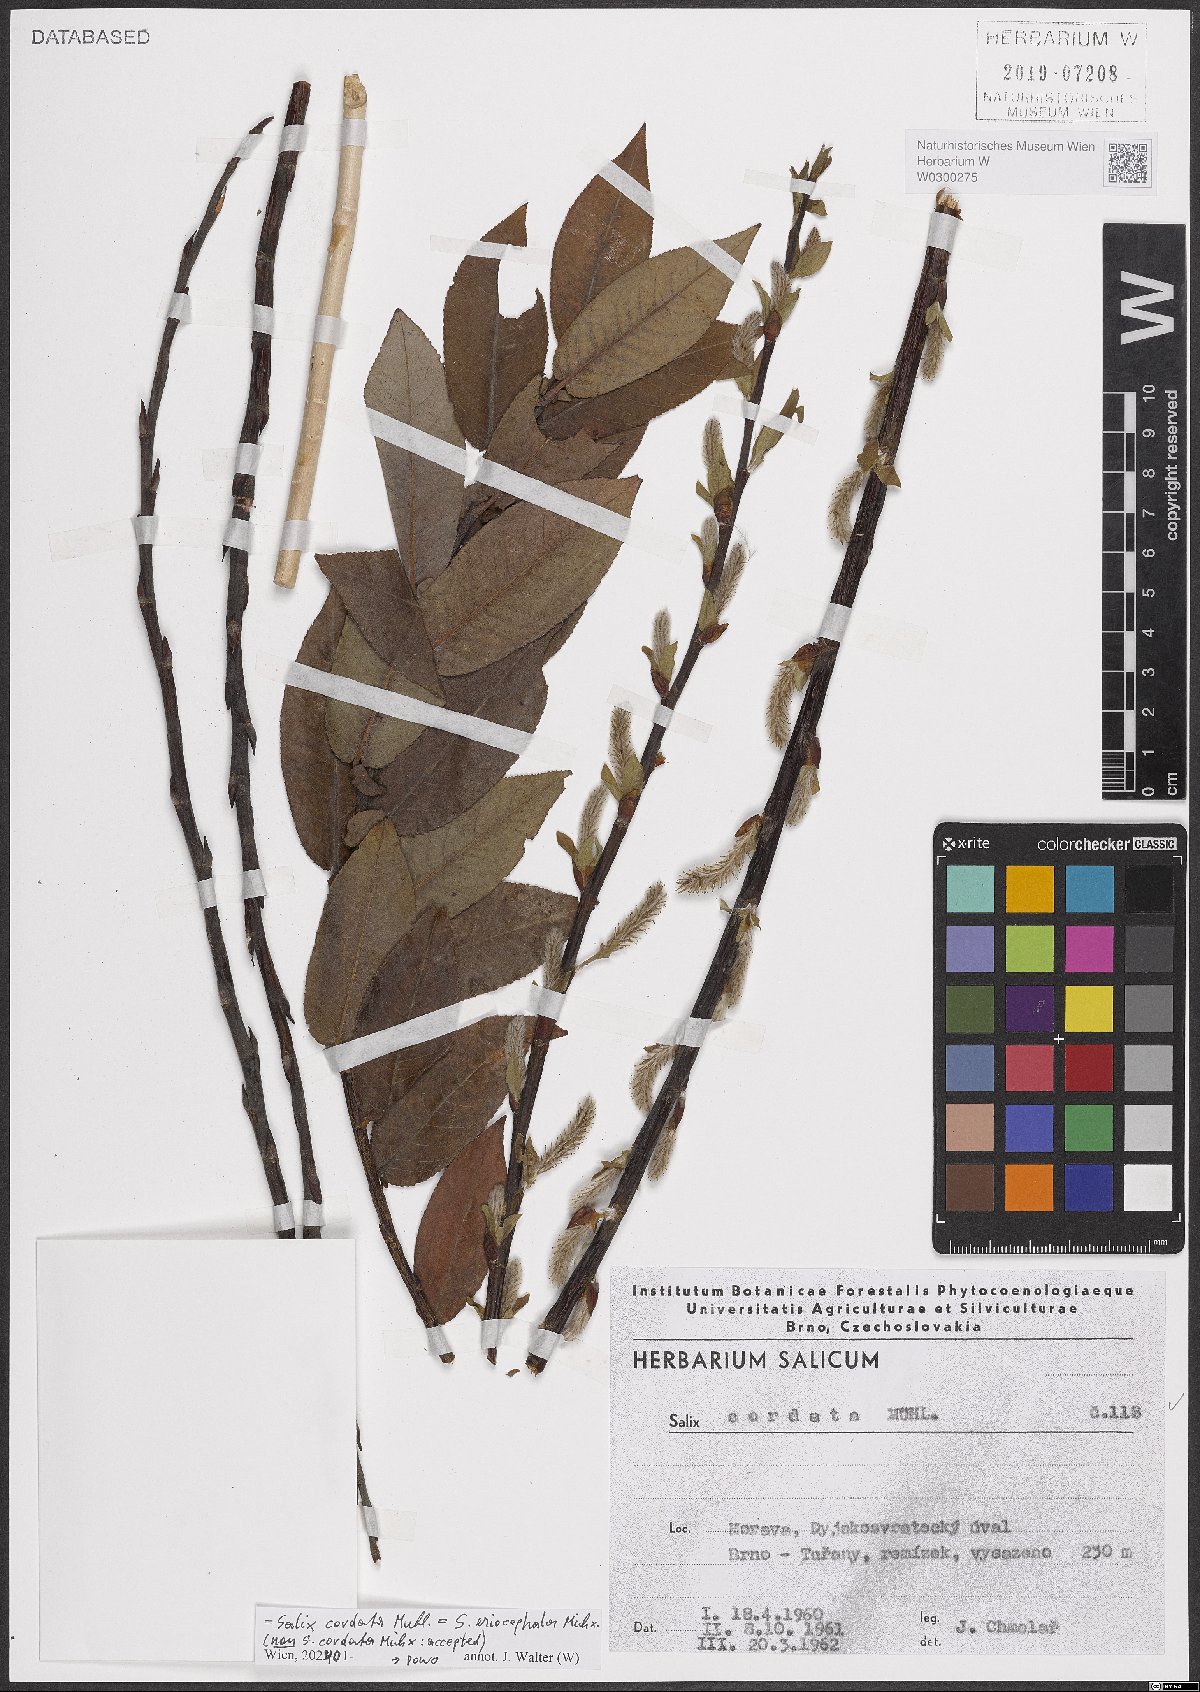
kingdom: Plantae
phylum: Tracheophyta
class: Magnoliopsida
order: Malpighiales
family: Salicaceae
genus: Salix
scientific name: Salix eriocephala
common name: Heart-leaved willow
